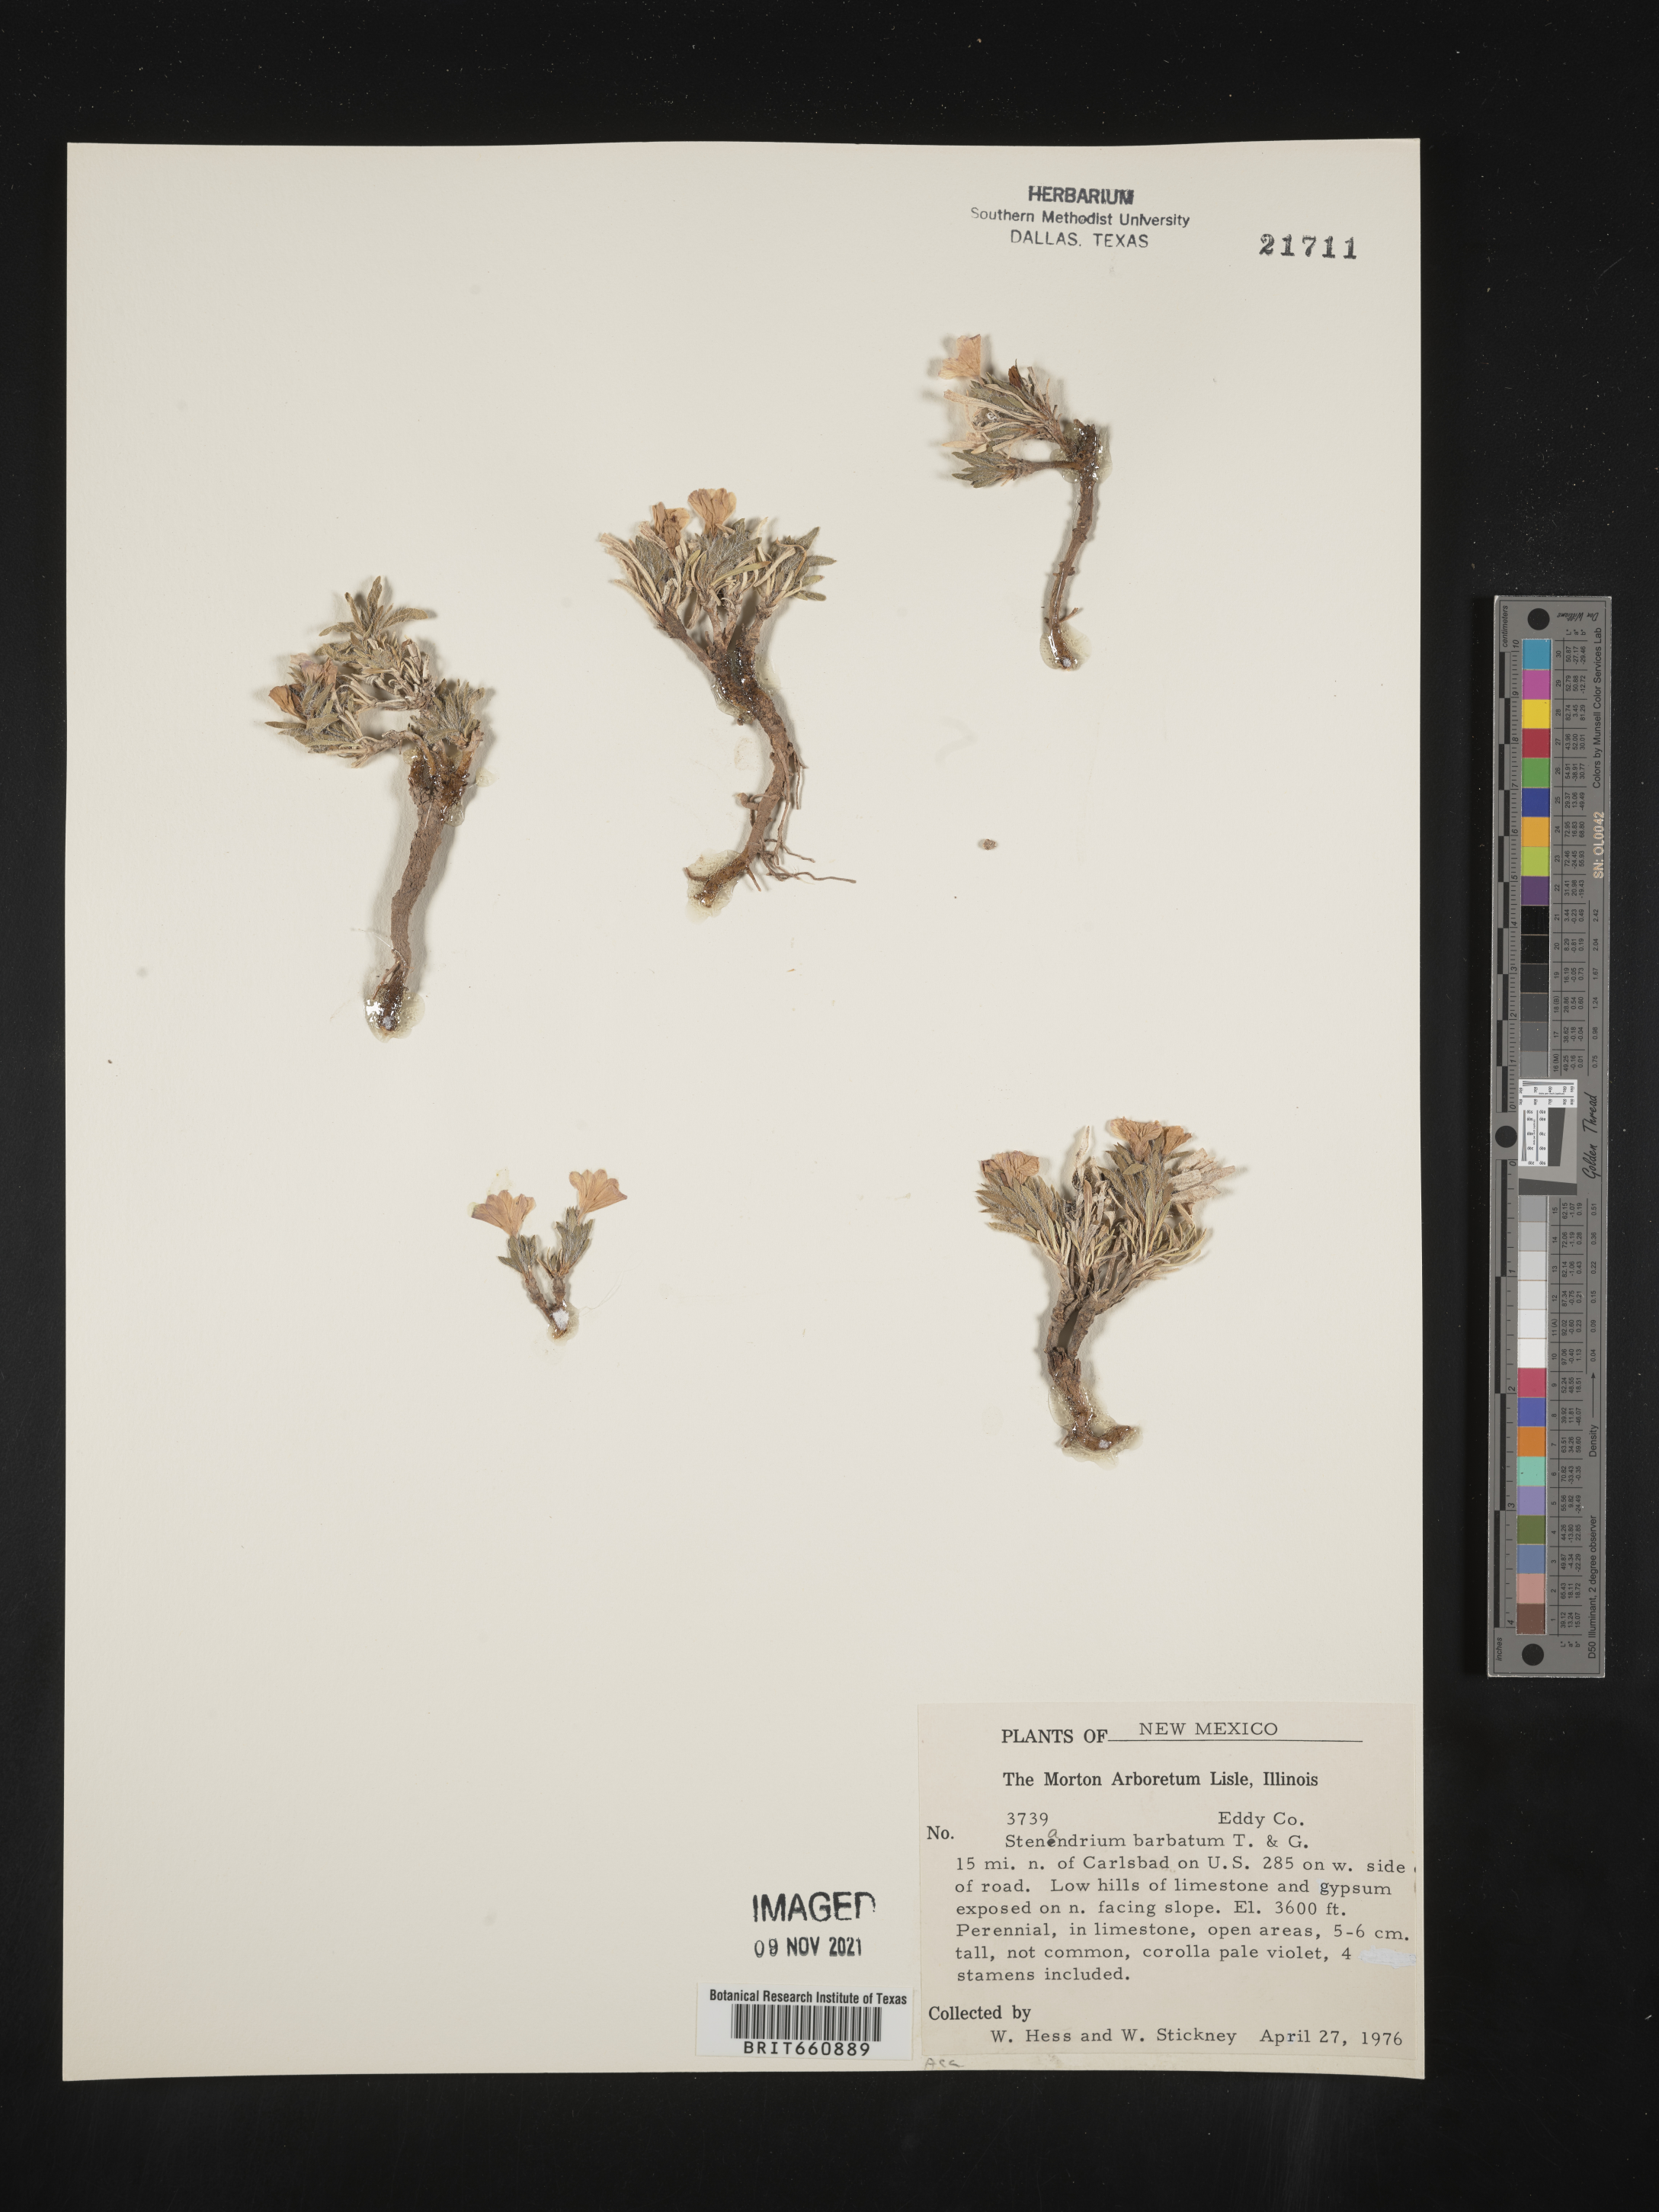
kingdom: Plantae
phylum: Tracheophyta
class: Magnoliopsida
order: Lamiales
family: Acanthaceae
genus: Stenandrium
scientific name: Stenandrium
